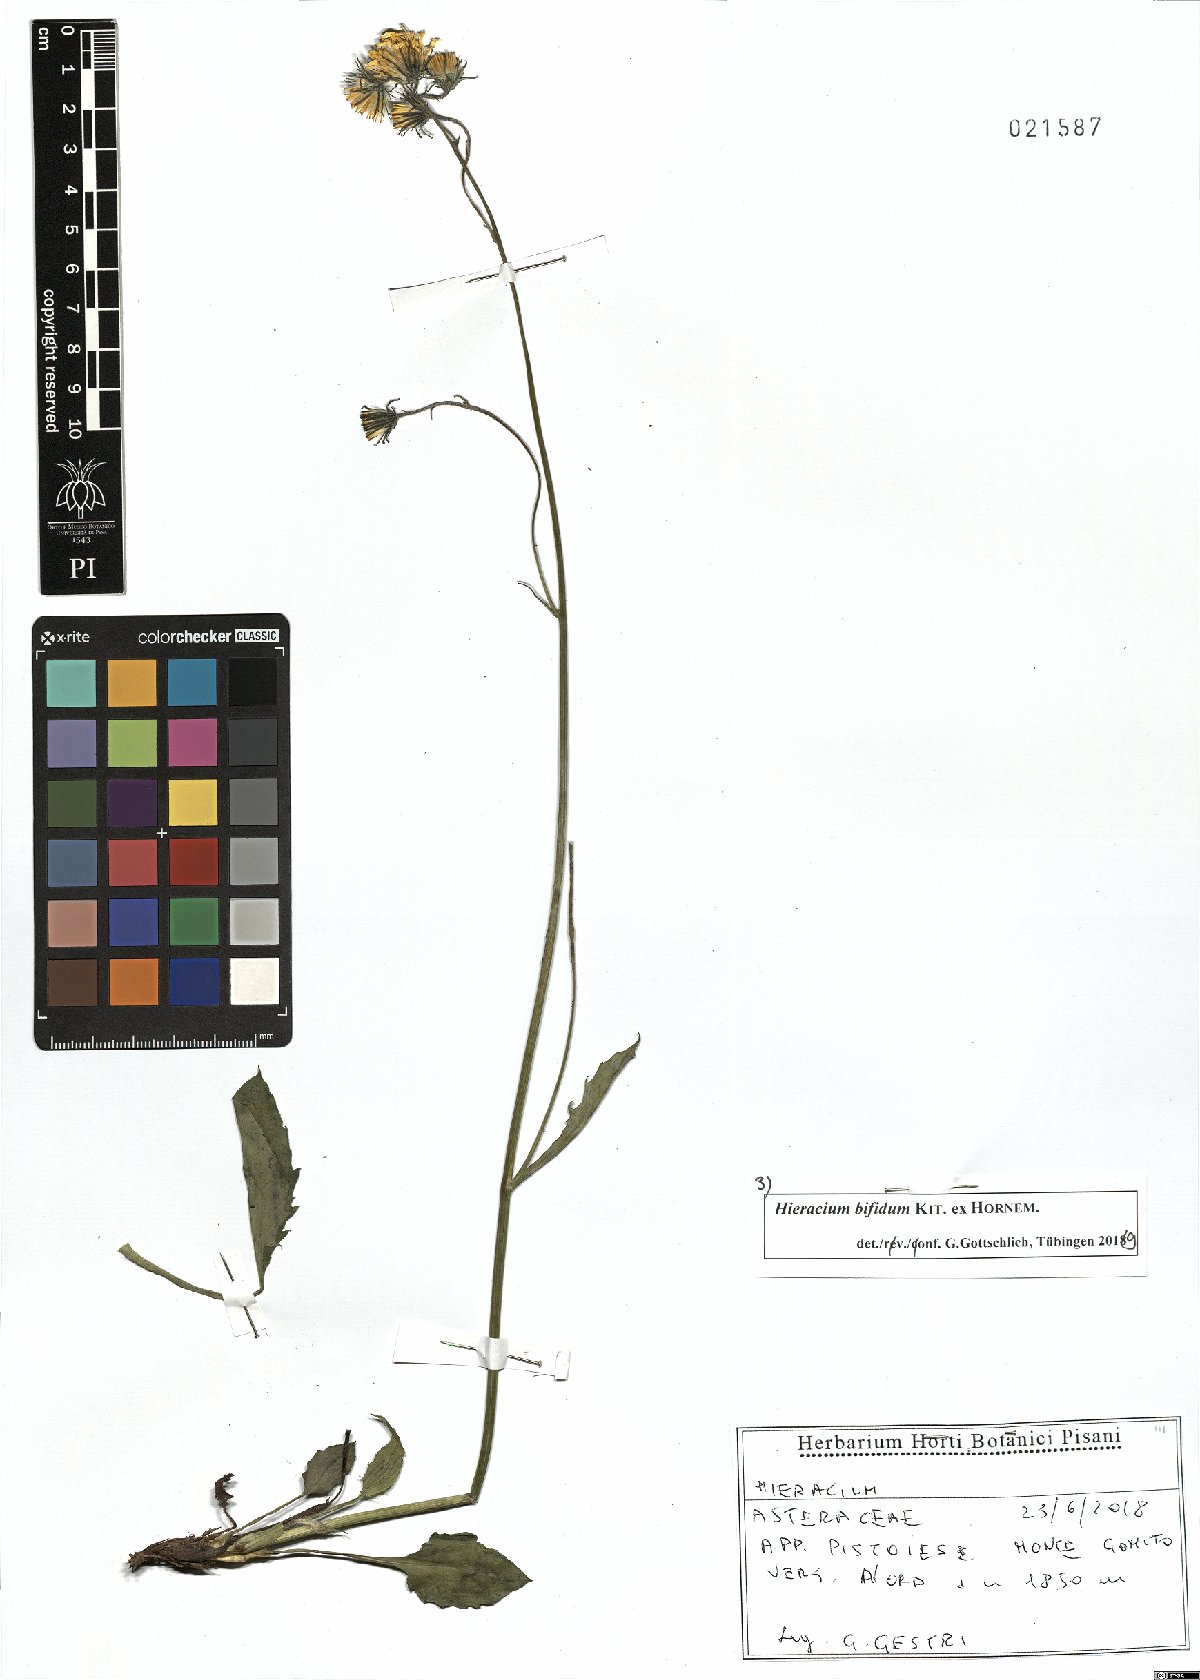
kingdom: Plantae
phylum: Tracheophyta
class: Magnoliopsida
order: Asterales
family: Asteraceae
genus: Hieracium
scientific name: Hieracium bifidum
